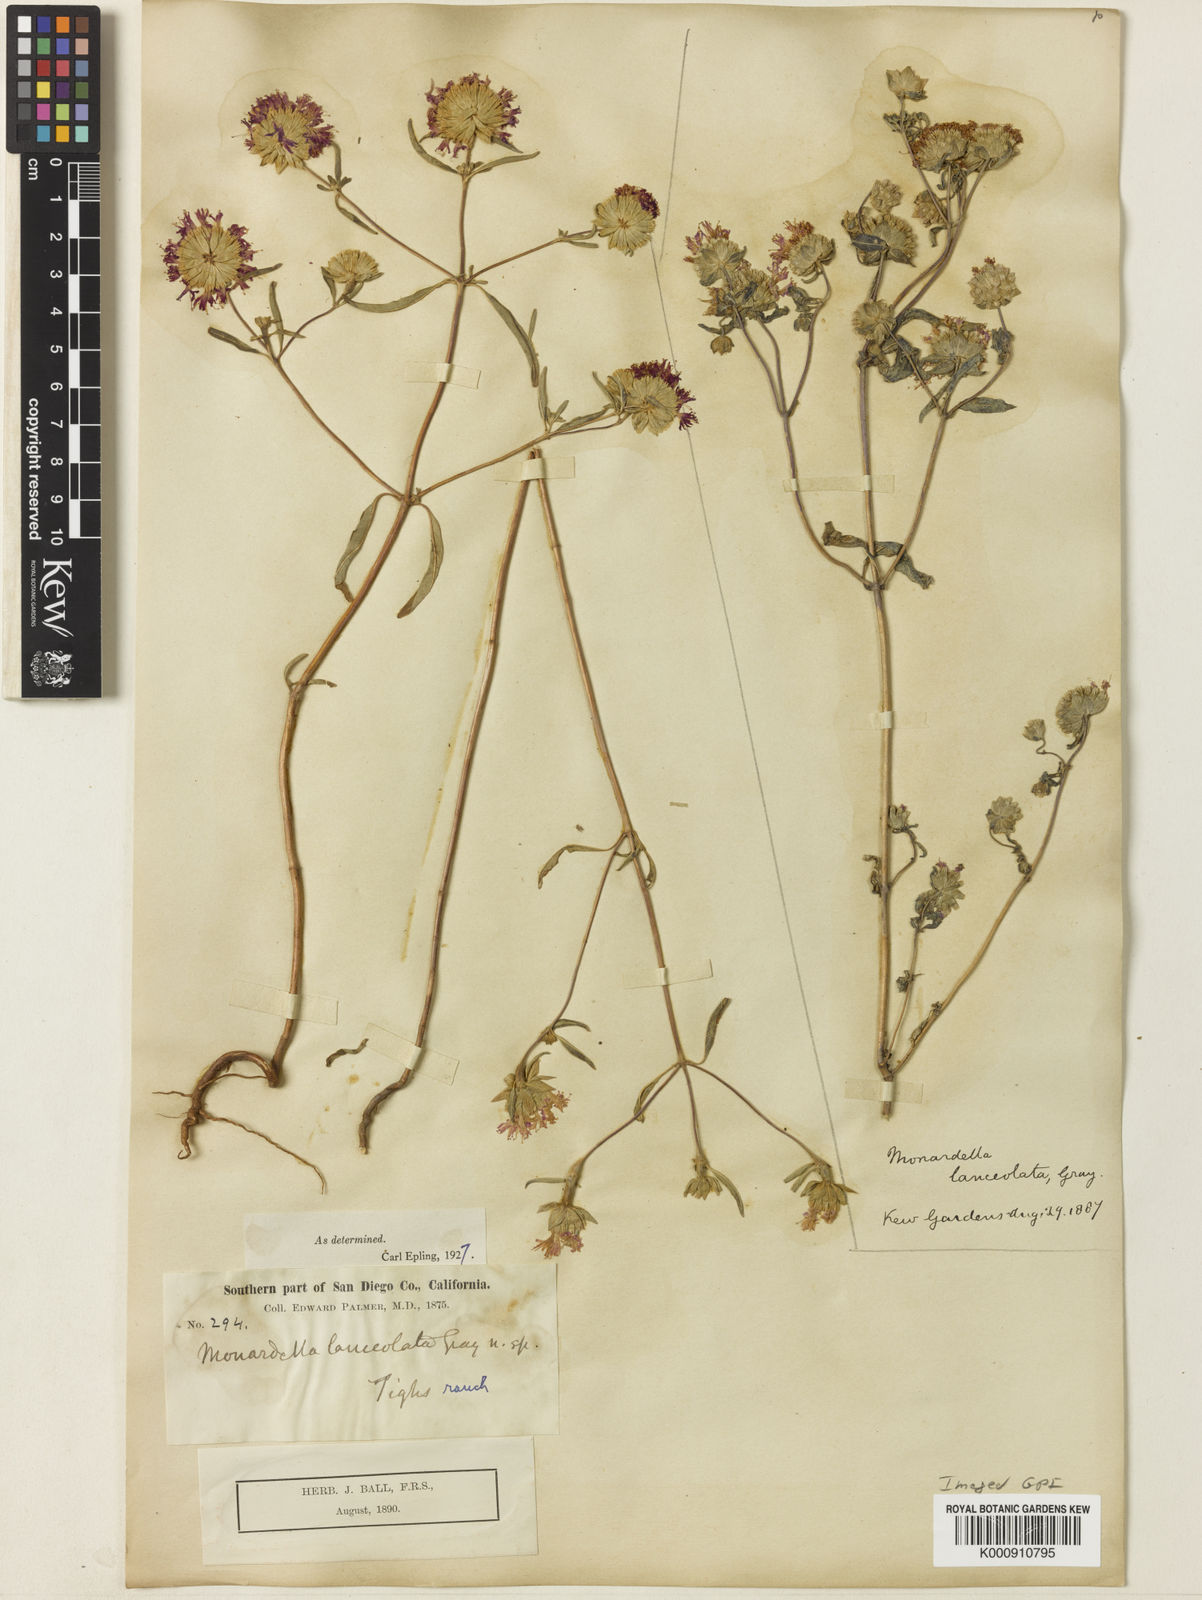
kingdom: Plantae
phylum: Tracheophyta
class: Magnoliopsida
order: Lamiales
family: Lamiaceae
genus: Monardella
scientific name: Monardella breweri
